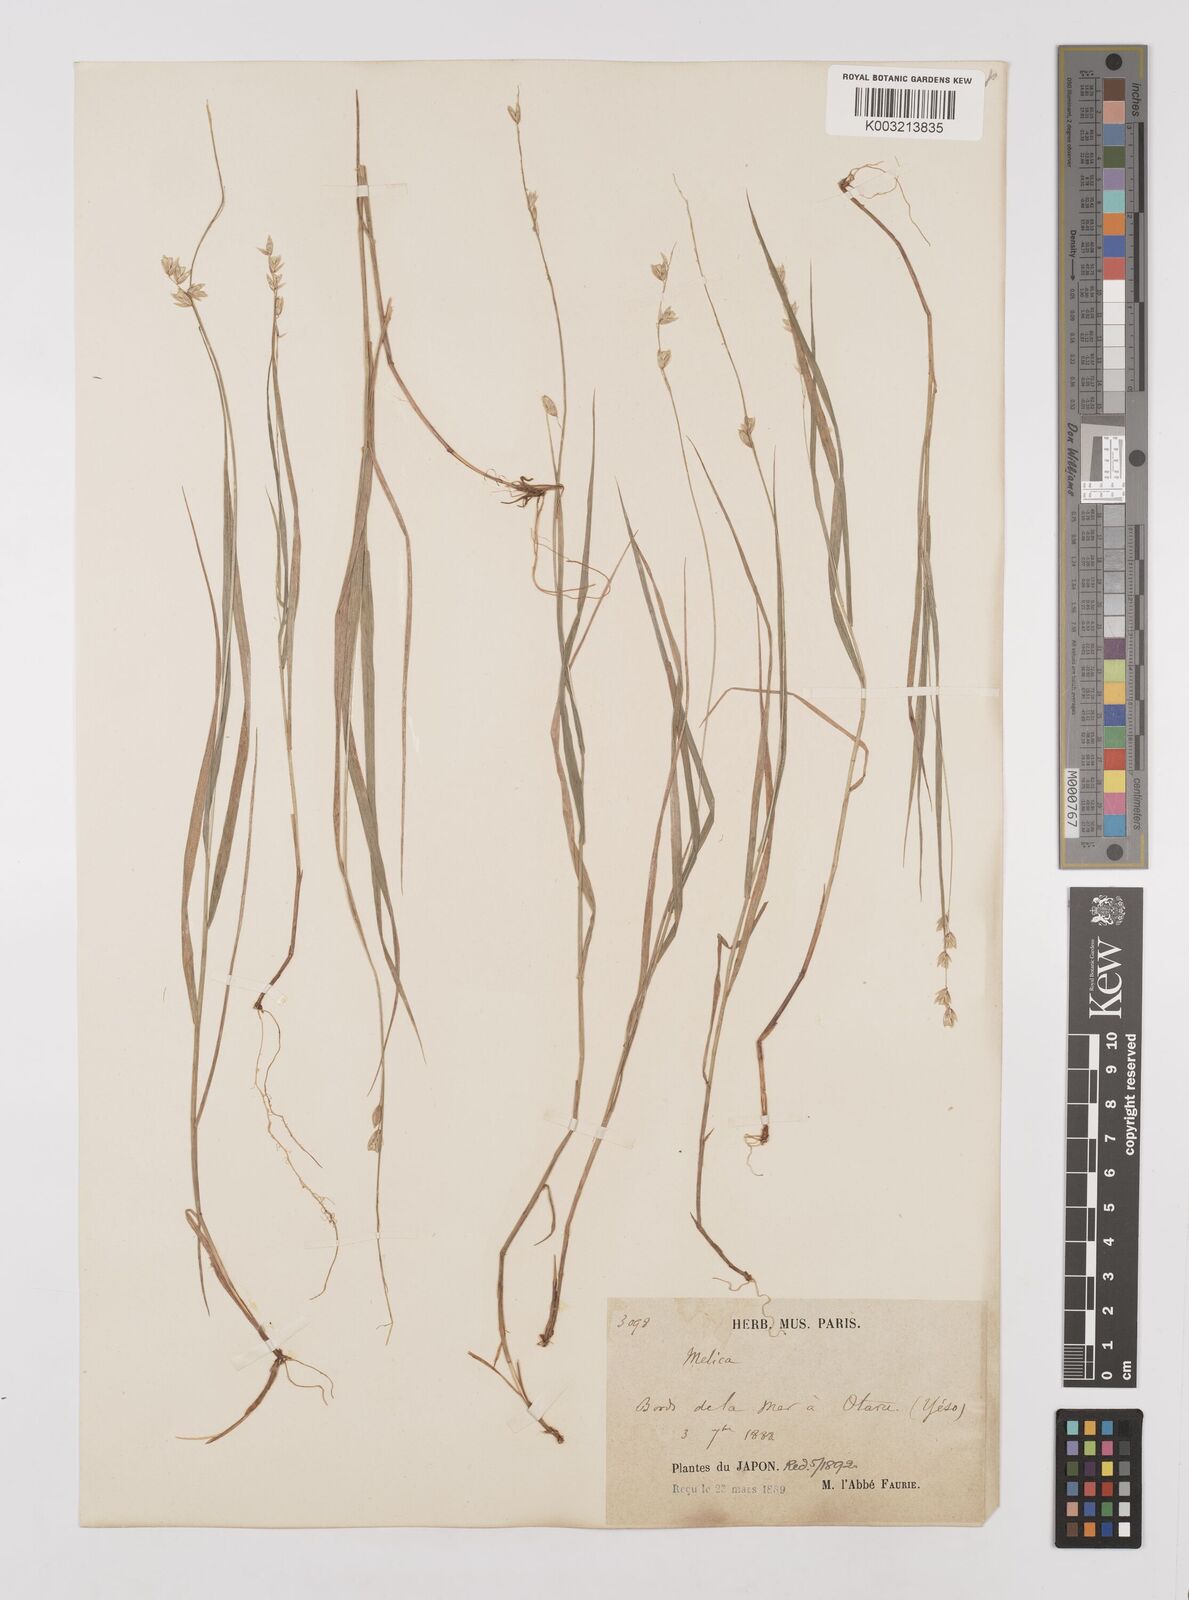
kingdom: Plantae
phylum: Tracheophyta
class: Liliopsida
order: Poales
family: Poaceae
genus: Melica
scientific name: Melica nutans
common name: Mountain melick
